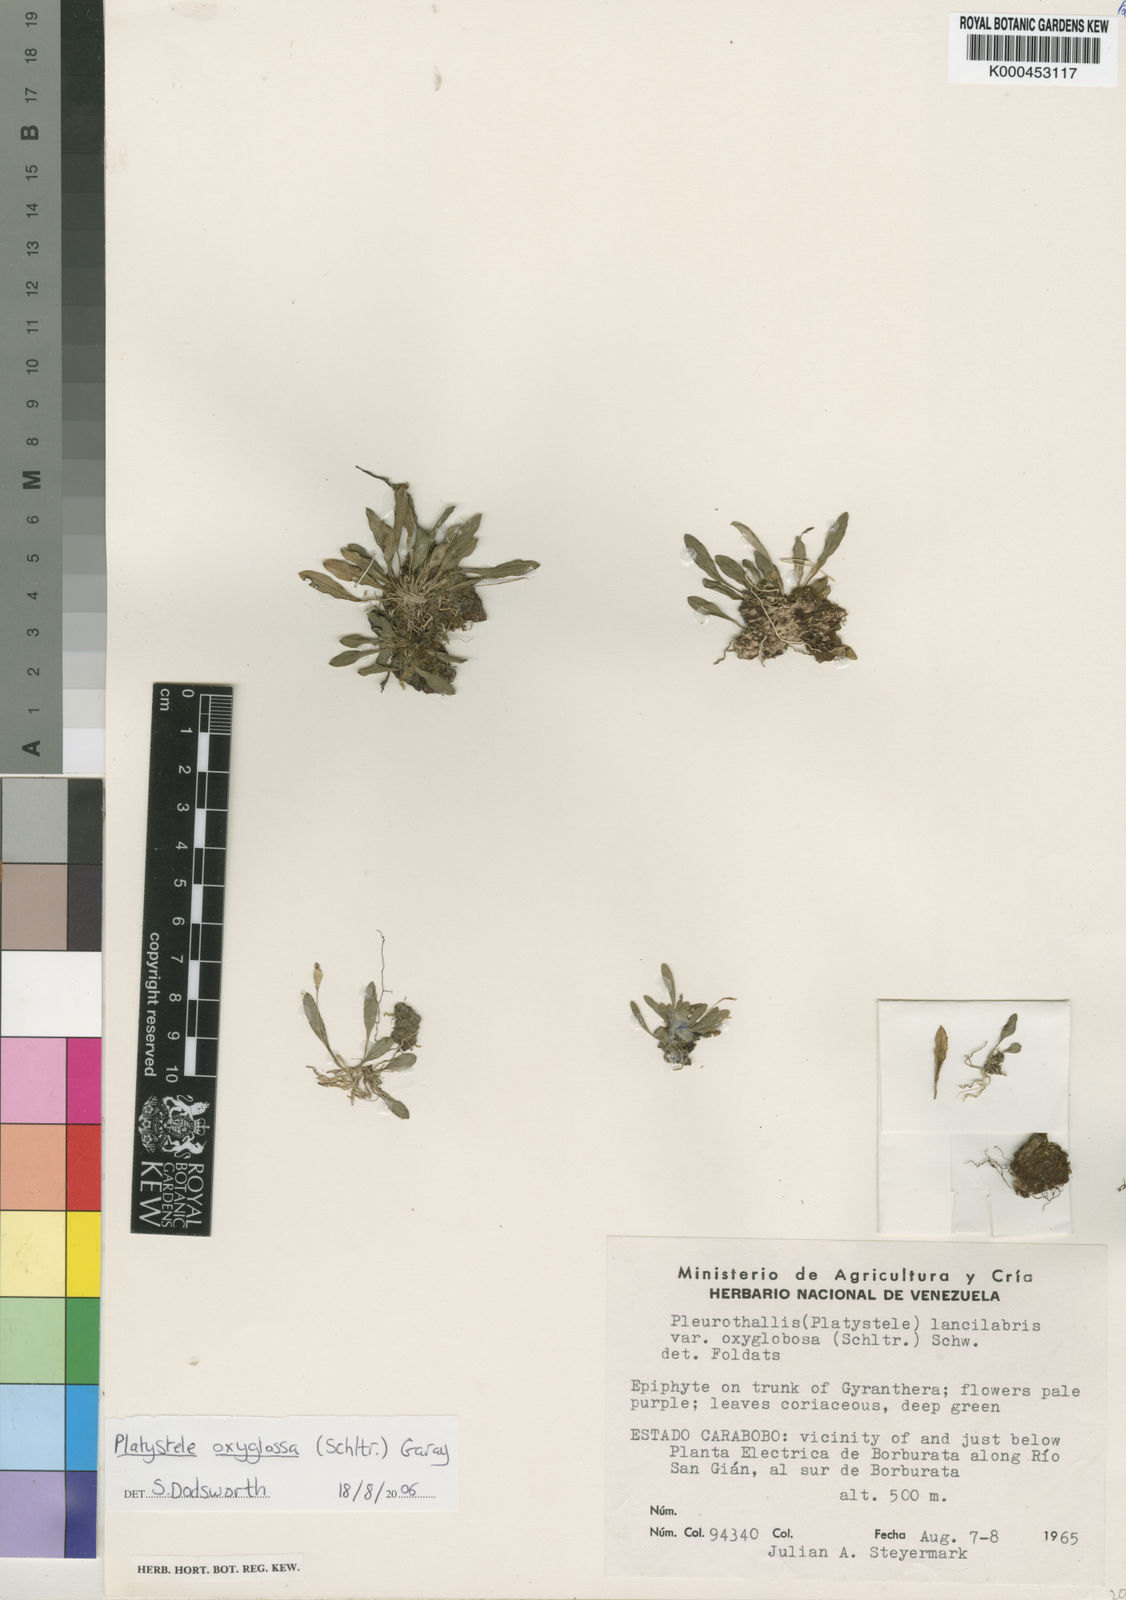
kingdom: Plantae
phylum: Tracheophyta
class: Liliopsida
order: Asparagales
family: Orchidaceae
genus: Platystele
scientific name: Platystele oxyglossa
